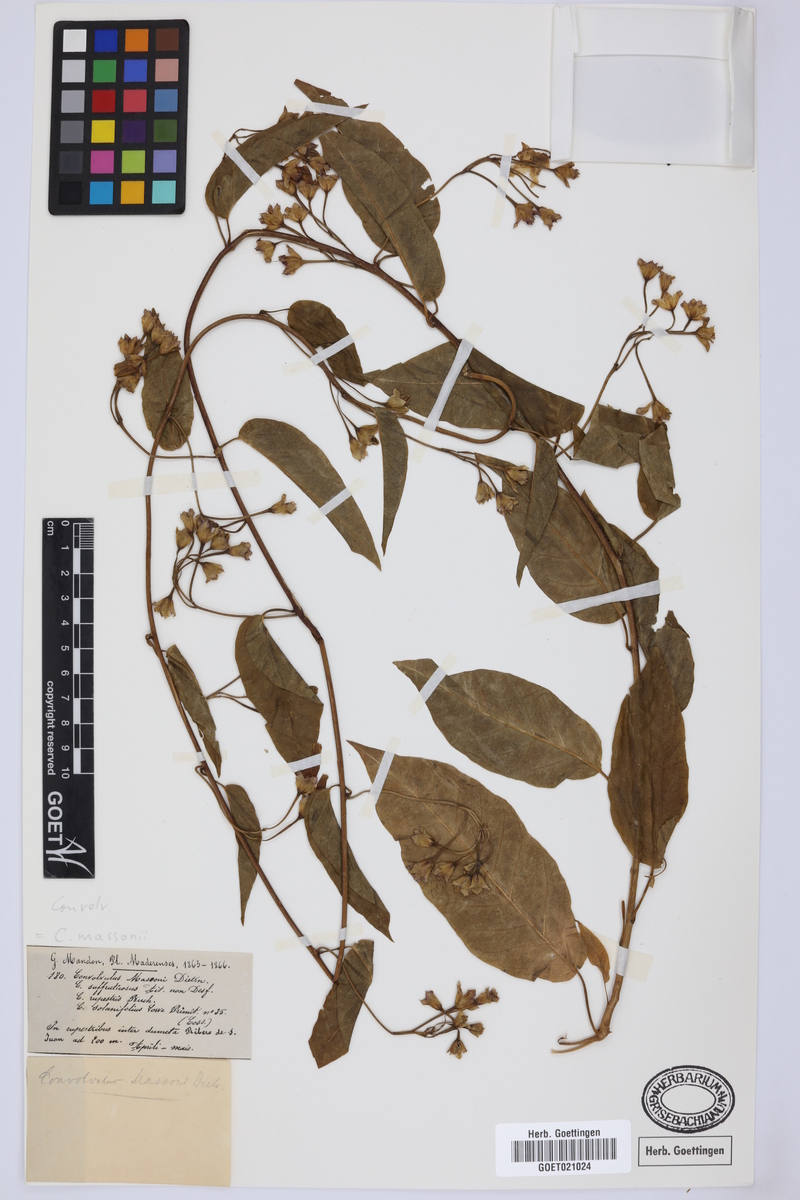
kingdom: Plantae
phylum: Tracheophyta
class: Magnoliopsida
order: Solanales
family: Convolvulaceae
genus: Convolvulus
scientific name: Convolvulus massonii
